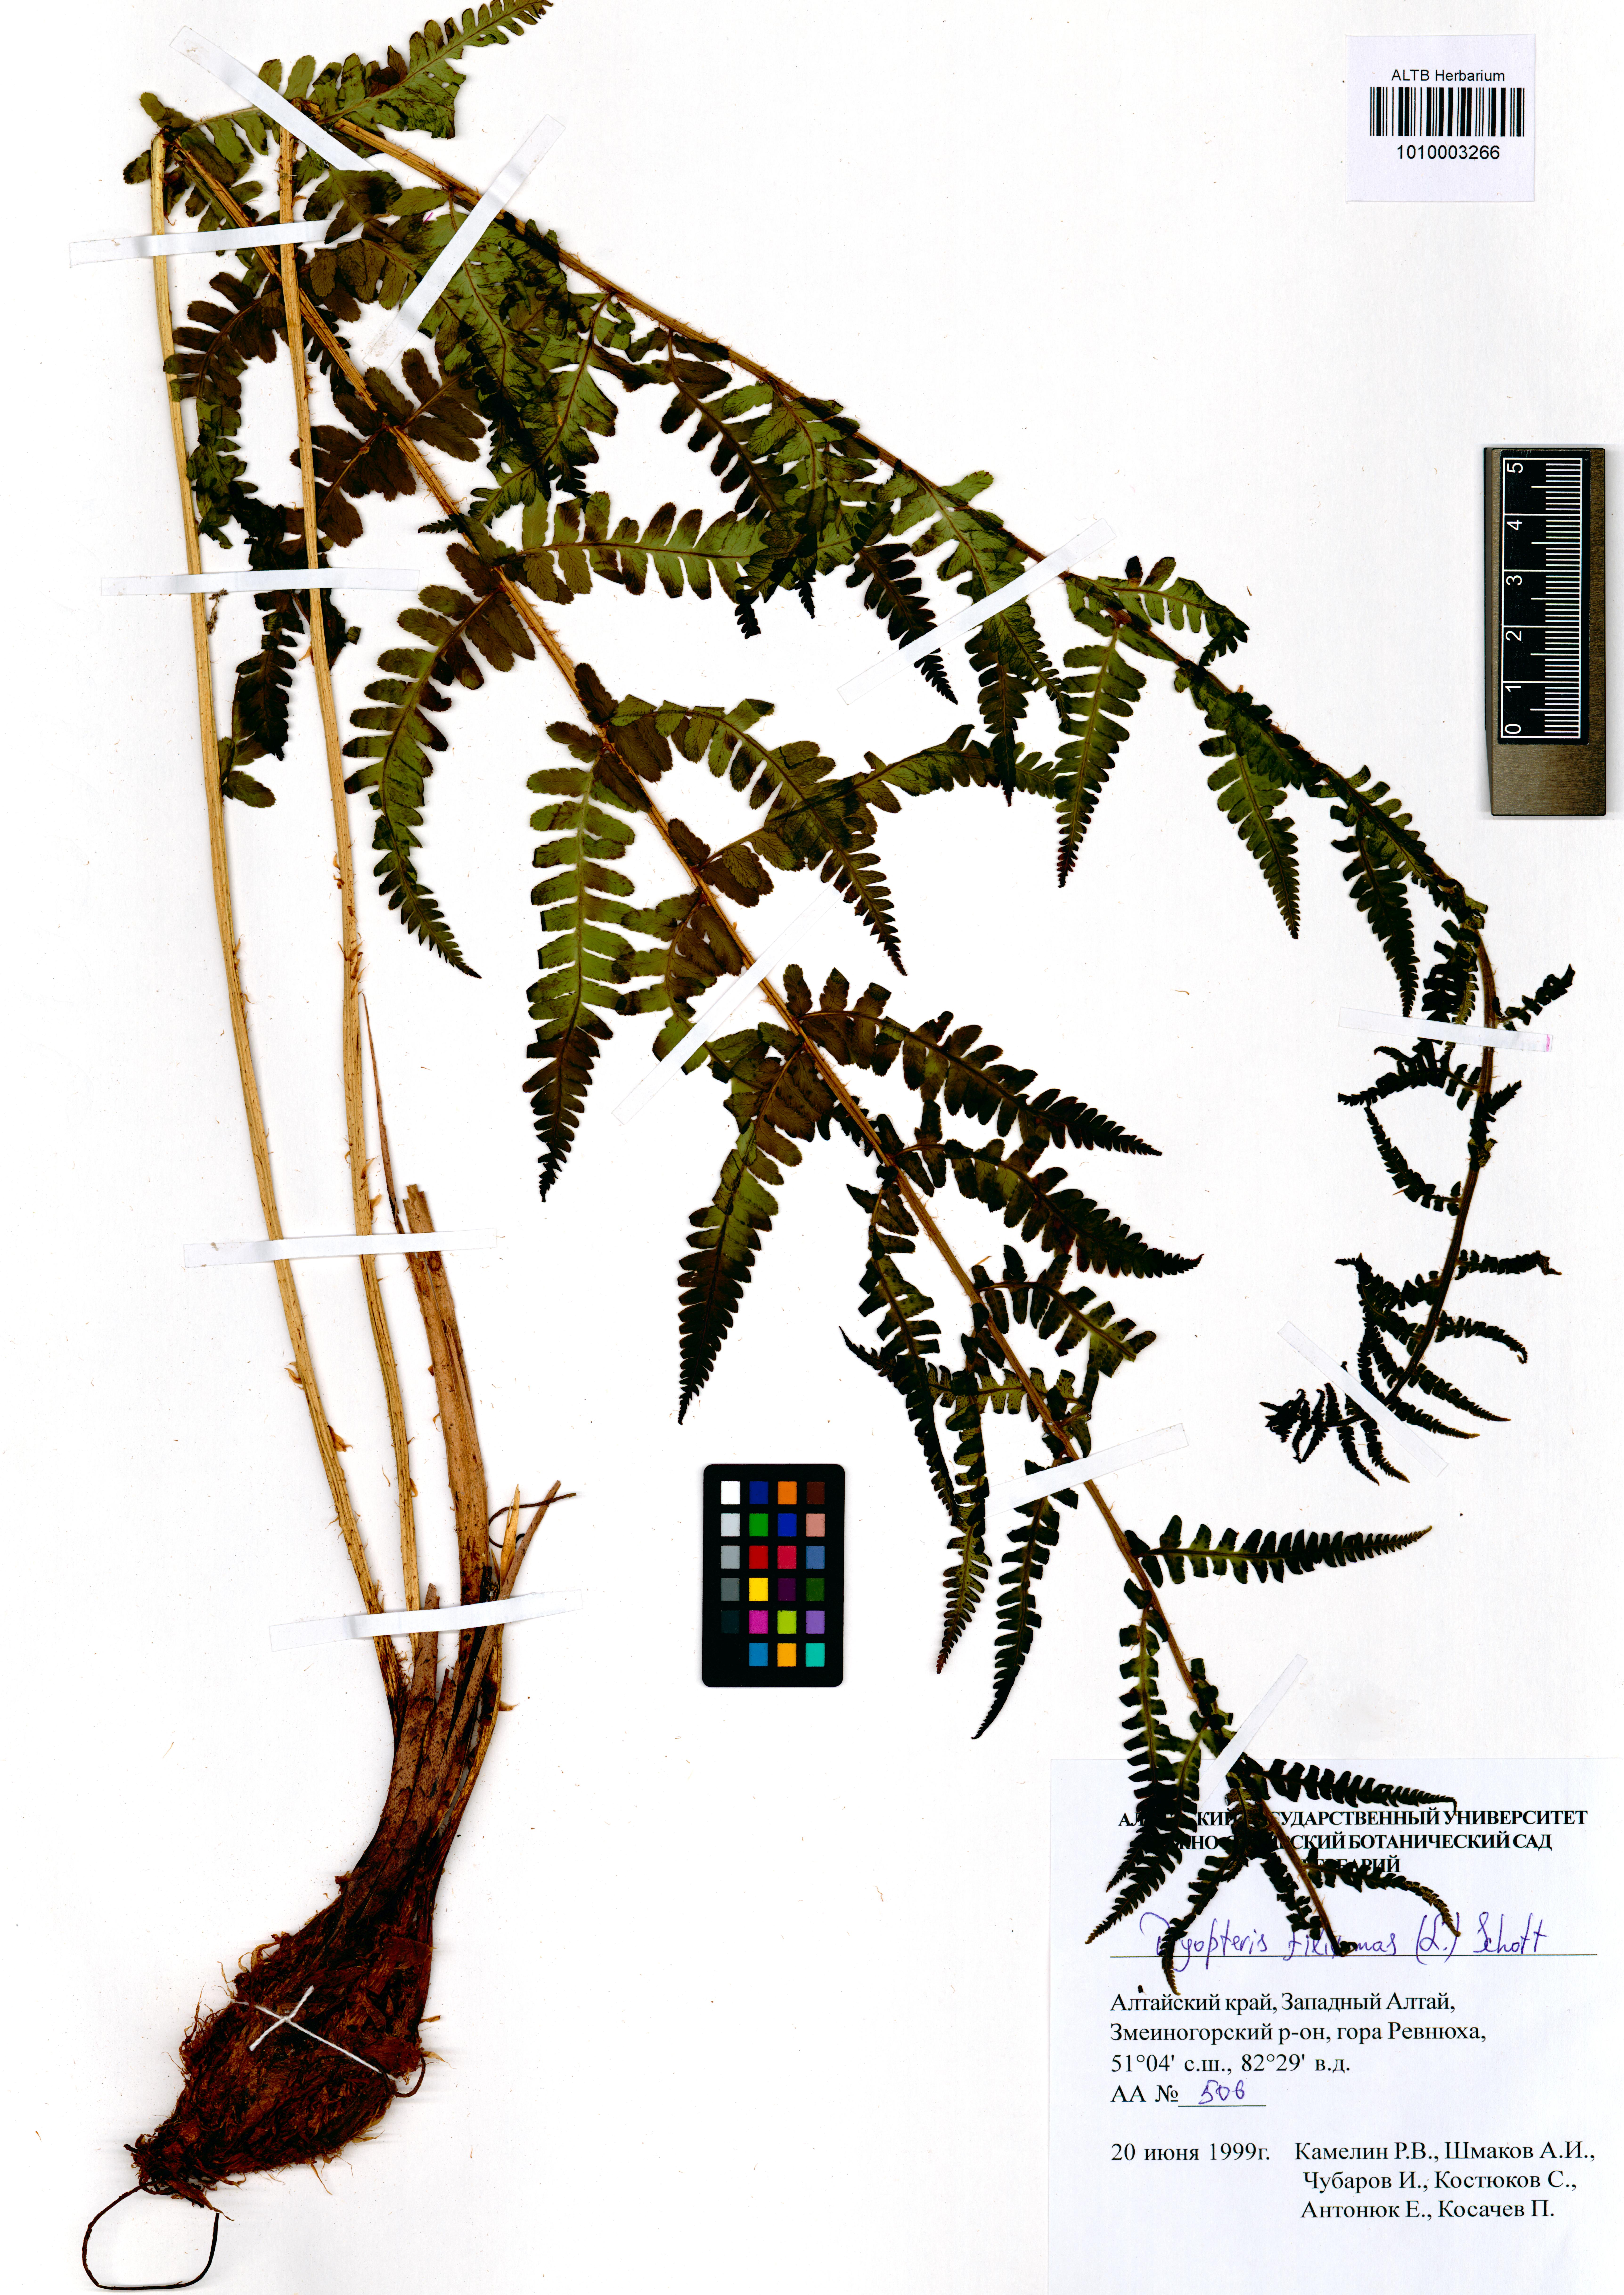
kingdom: Plantae
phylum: Tracheophyta
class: Polypodiopsida
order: Polypodiales
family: Dryopteridaceae
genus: Dryopteris
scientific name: Dryopteris filix-mas
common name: Male fern
